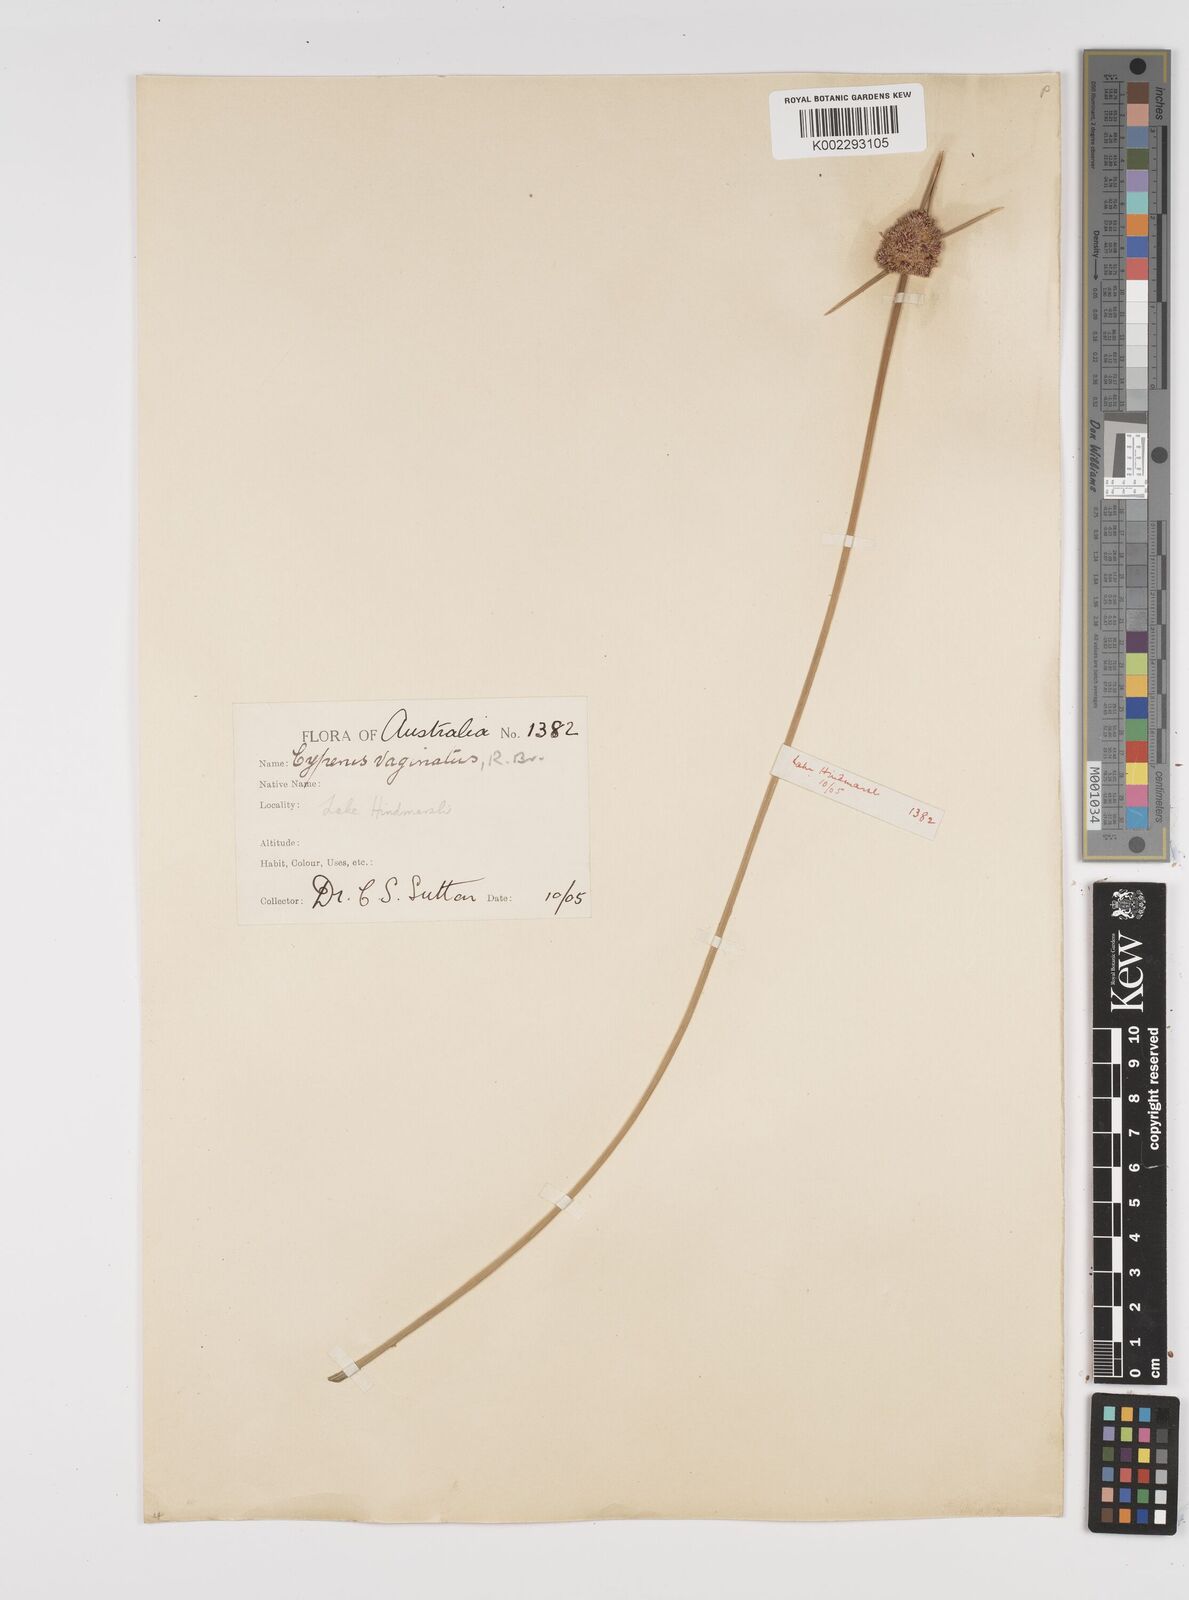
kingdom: Plantae
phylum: Tracheophyta
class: Liliopsida
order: Poales
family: Cyperaceae
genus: Cyperus
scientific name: Cyperus gymnocaulos
